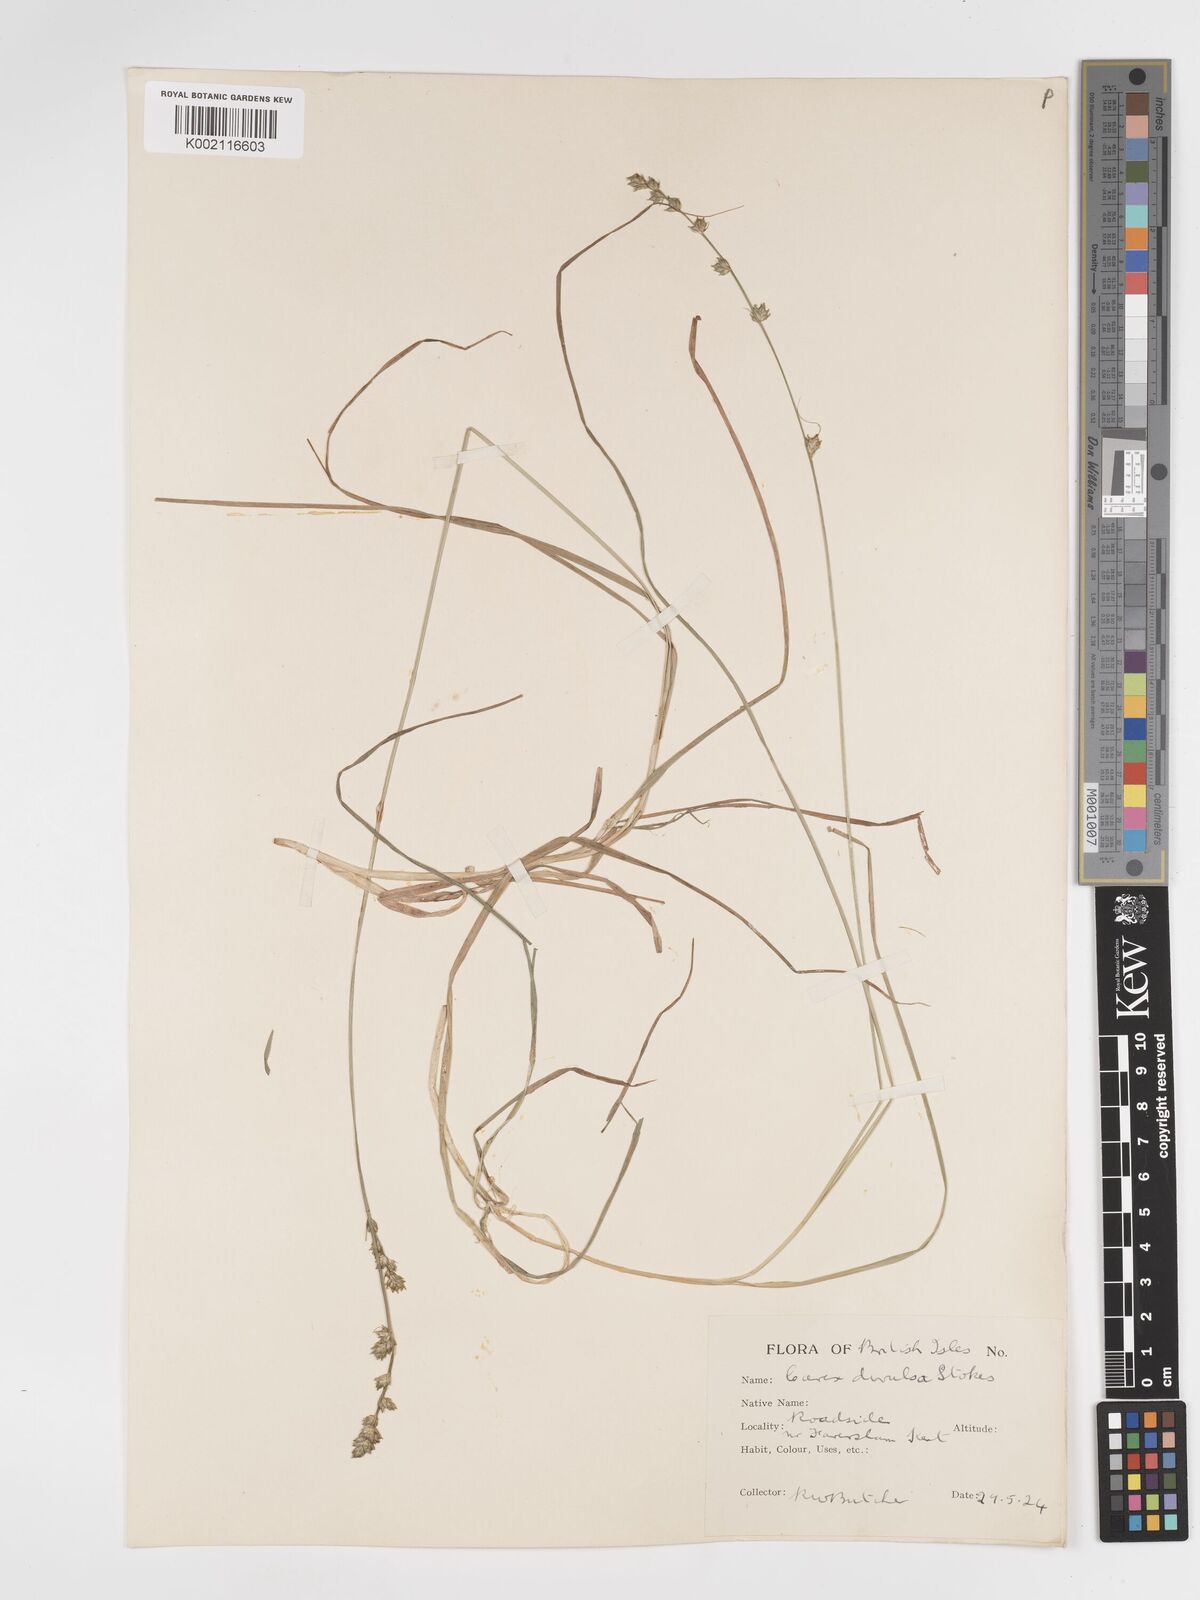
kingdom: Plantae
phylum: Tracheophyta
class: Liliopsida
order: Poales
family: Cyperaceae
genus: Carex
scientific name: Carex divulsa
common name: Grassland sedge
